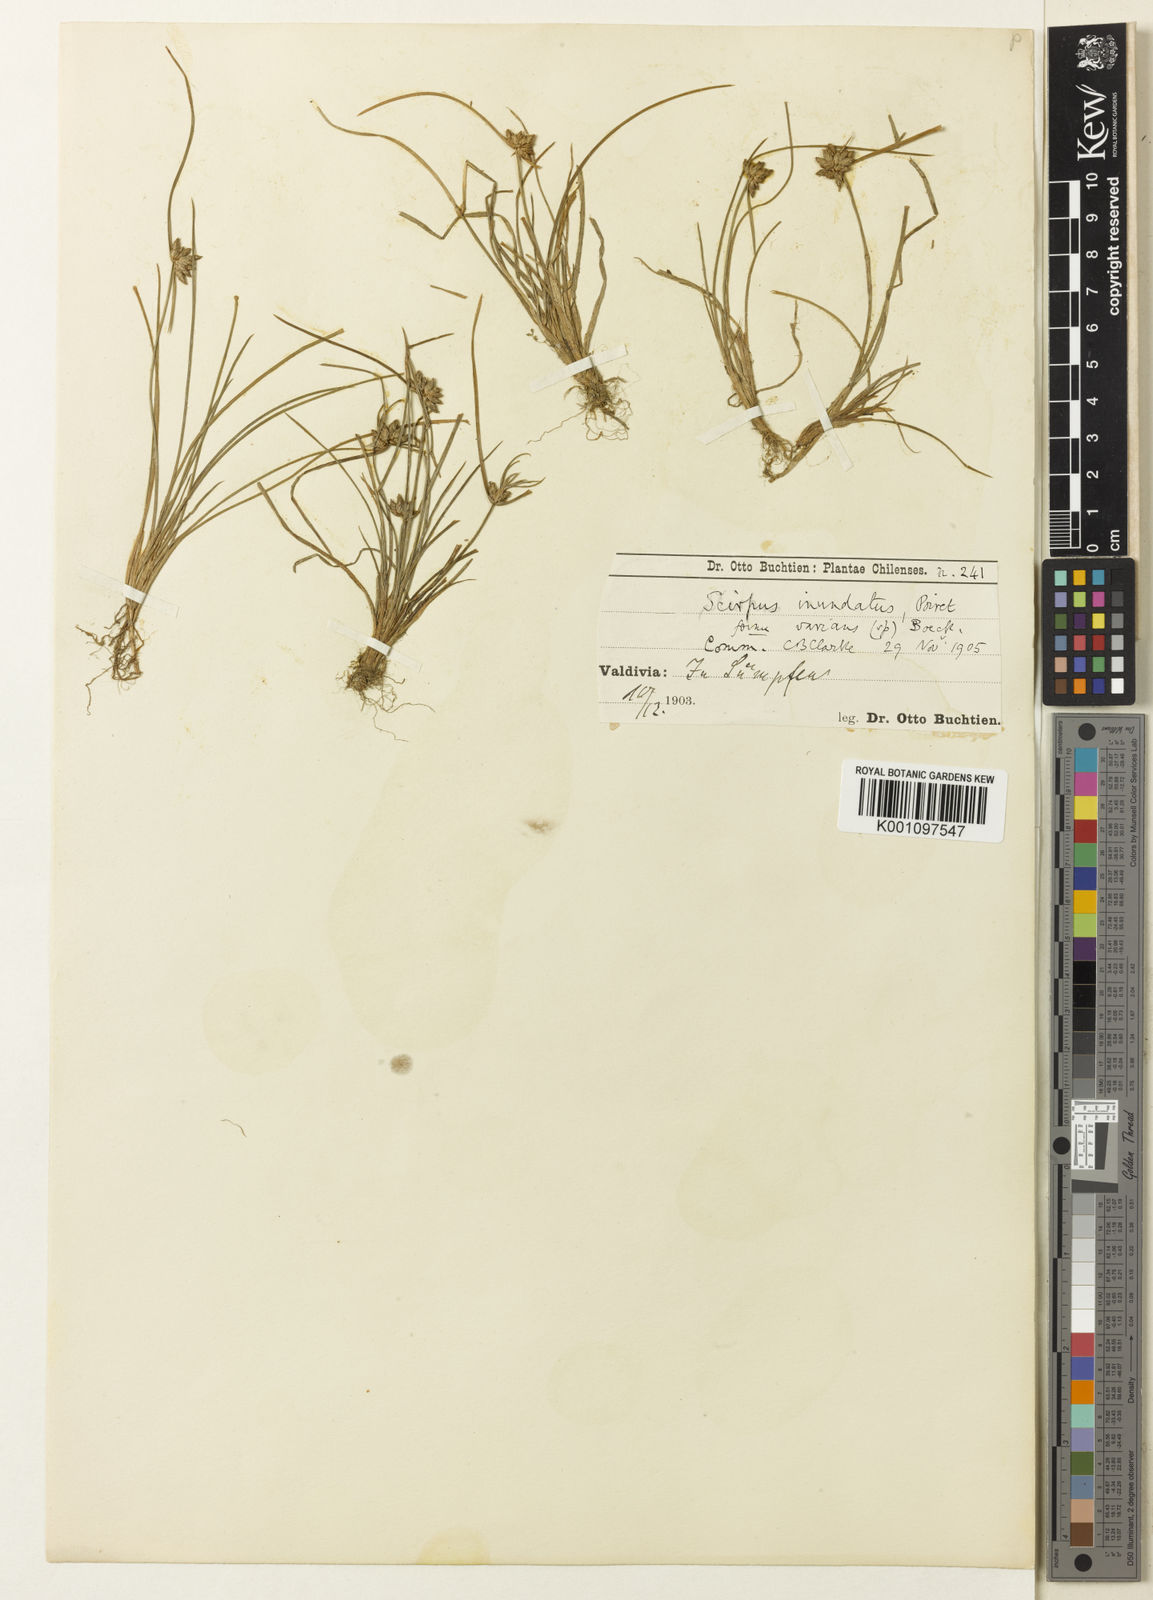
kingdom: Plantae
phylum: Tracheophyta
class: Liliopsida
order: Poales
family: Cyperaceae
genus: Isolepis
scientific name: Isolepis inundata
